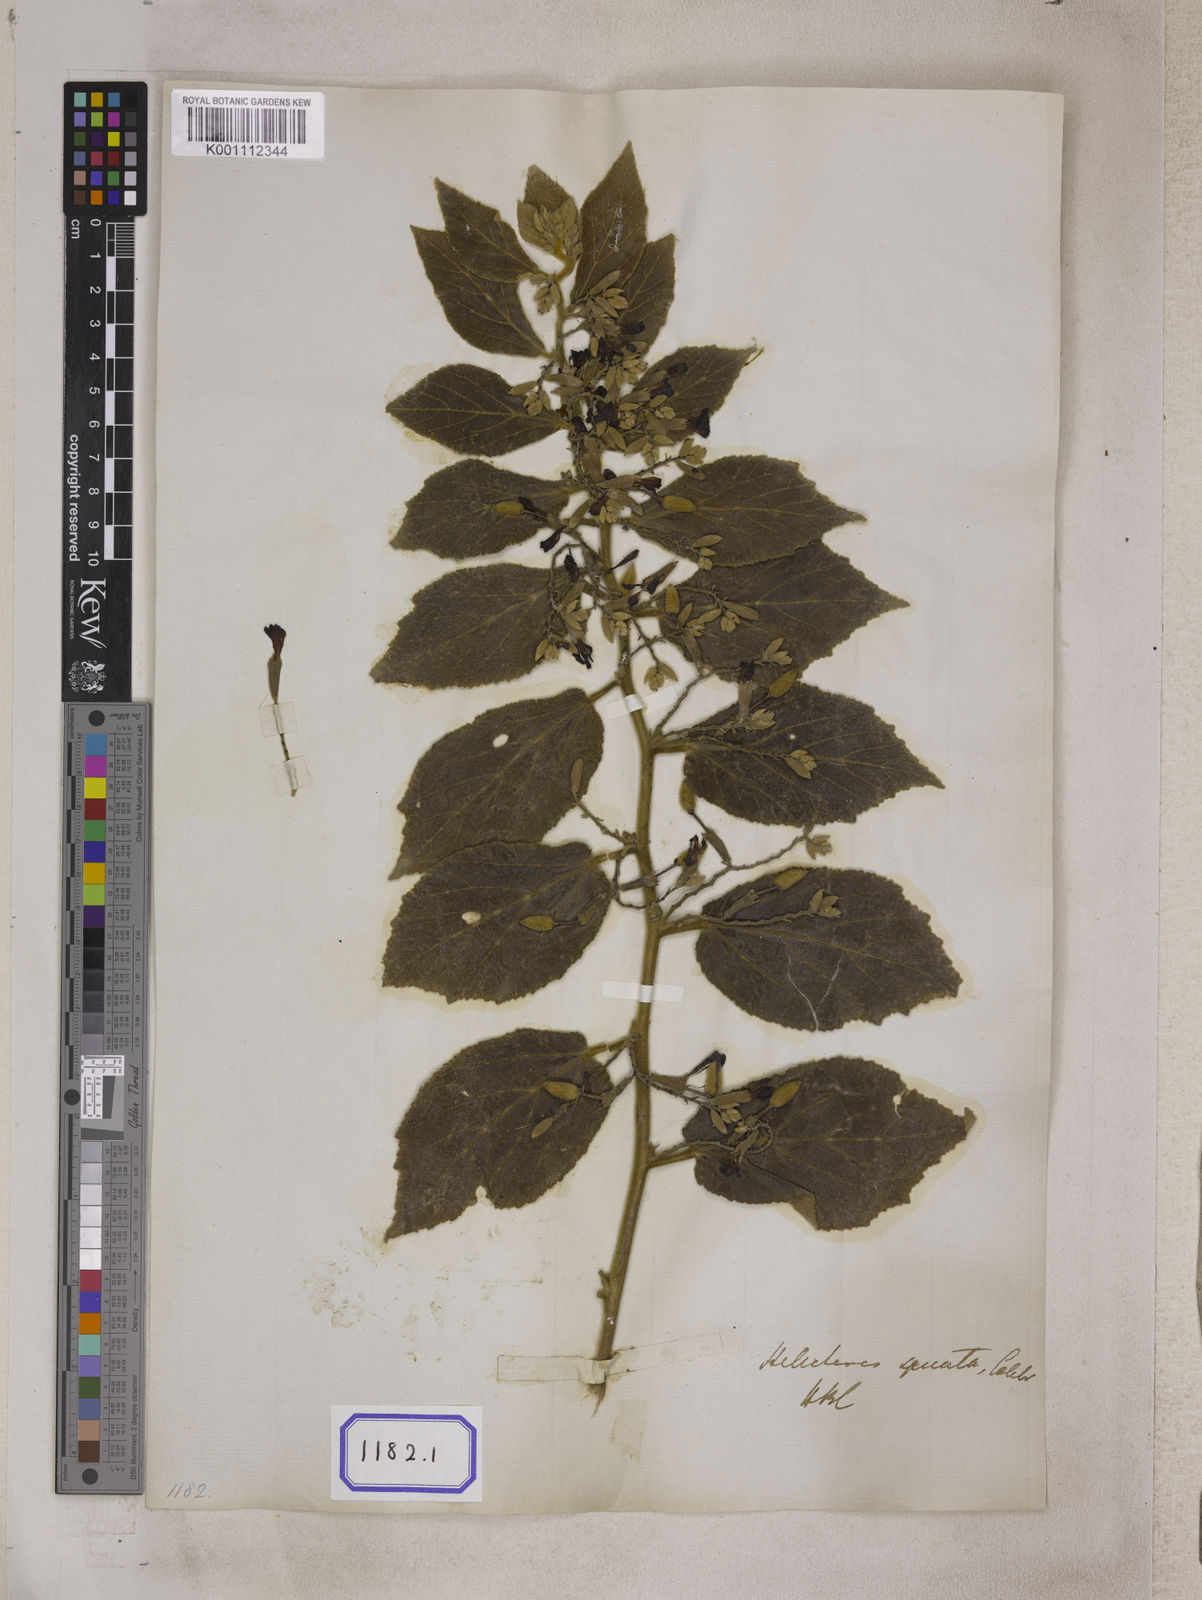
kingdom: Plantae
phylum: Tracheophyta
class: Magnoliopsida
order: Malvales
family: Malvaceae
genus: Helicteres
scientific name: Helicteres
